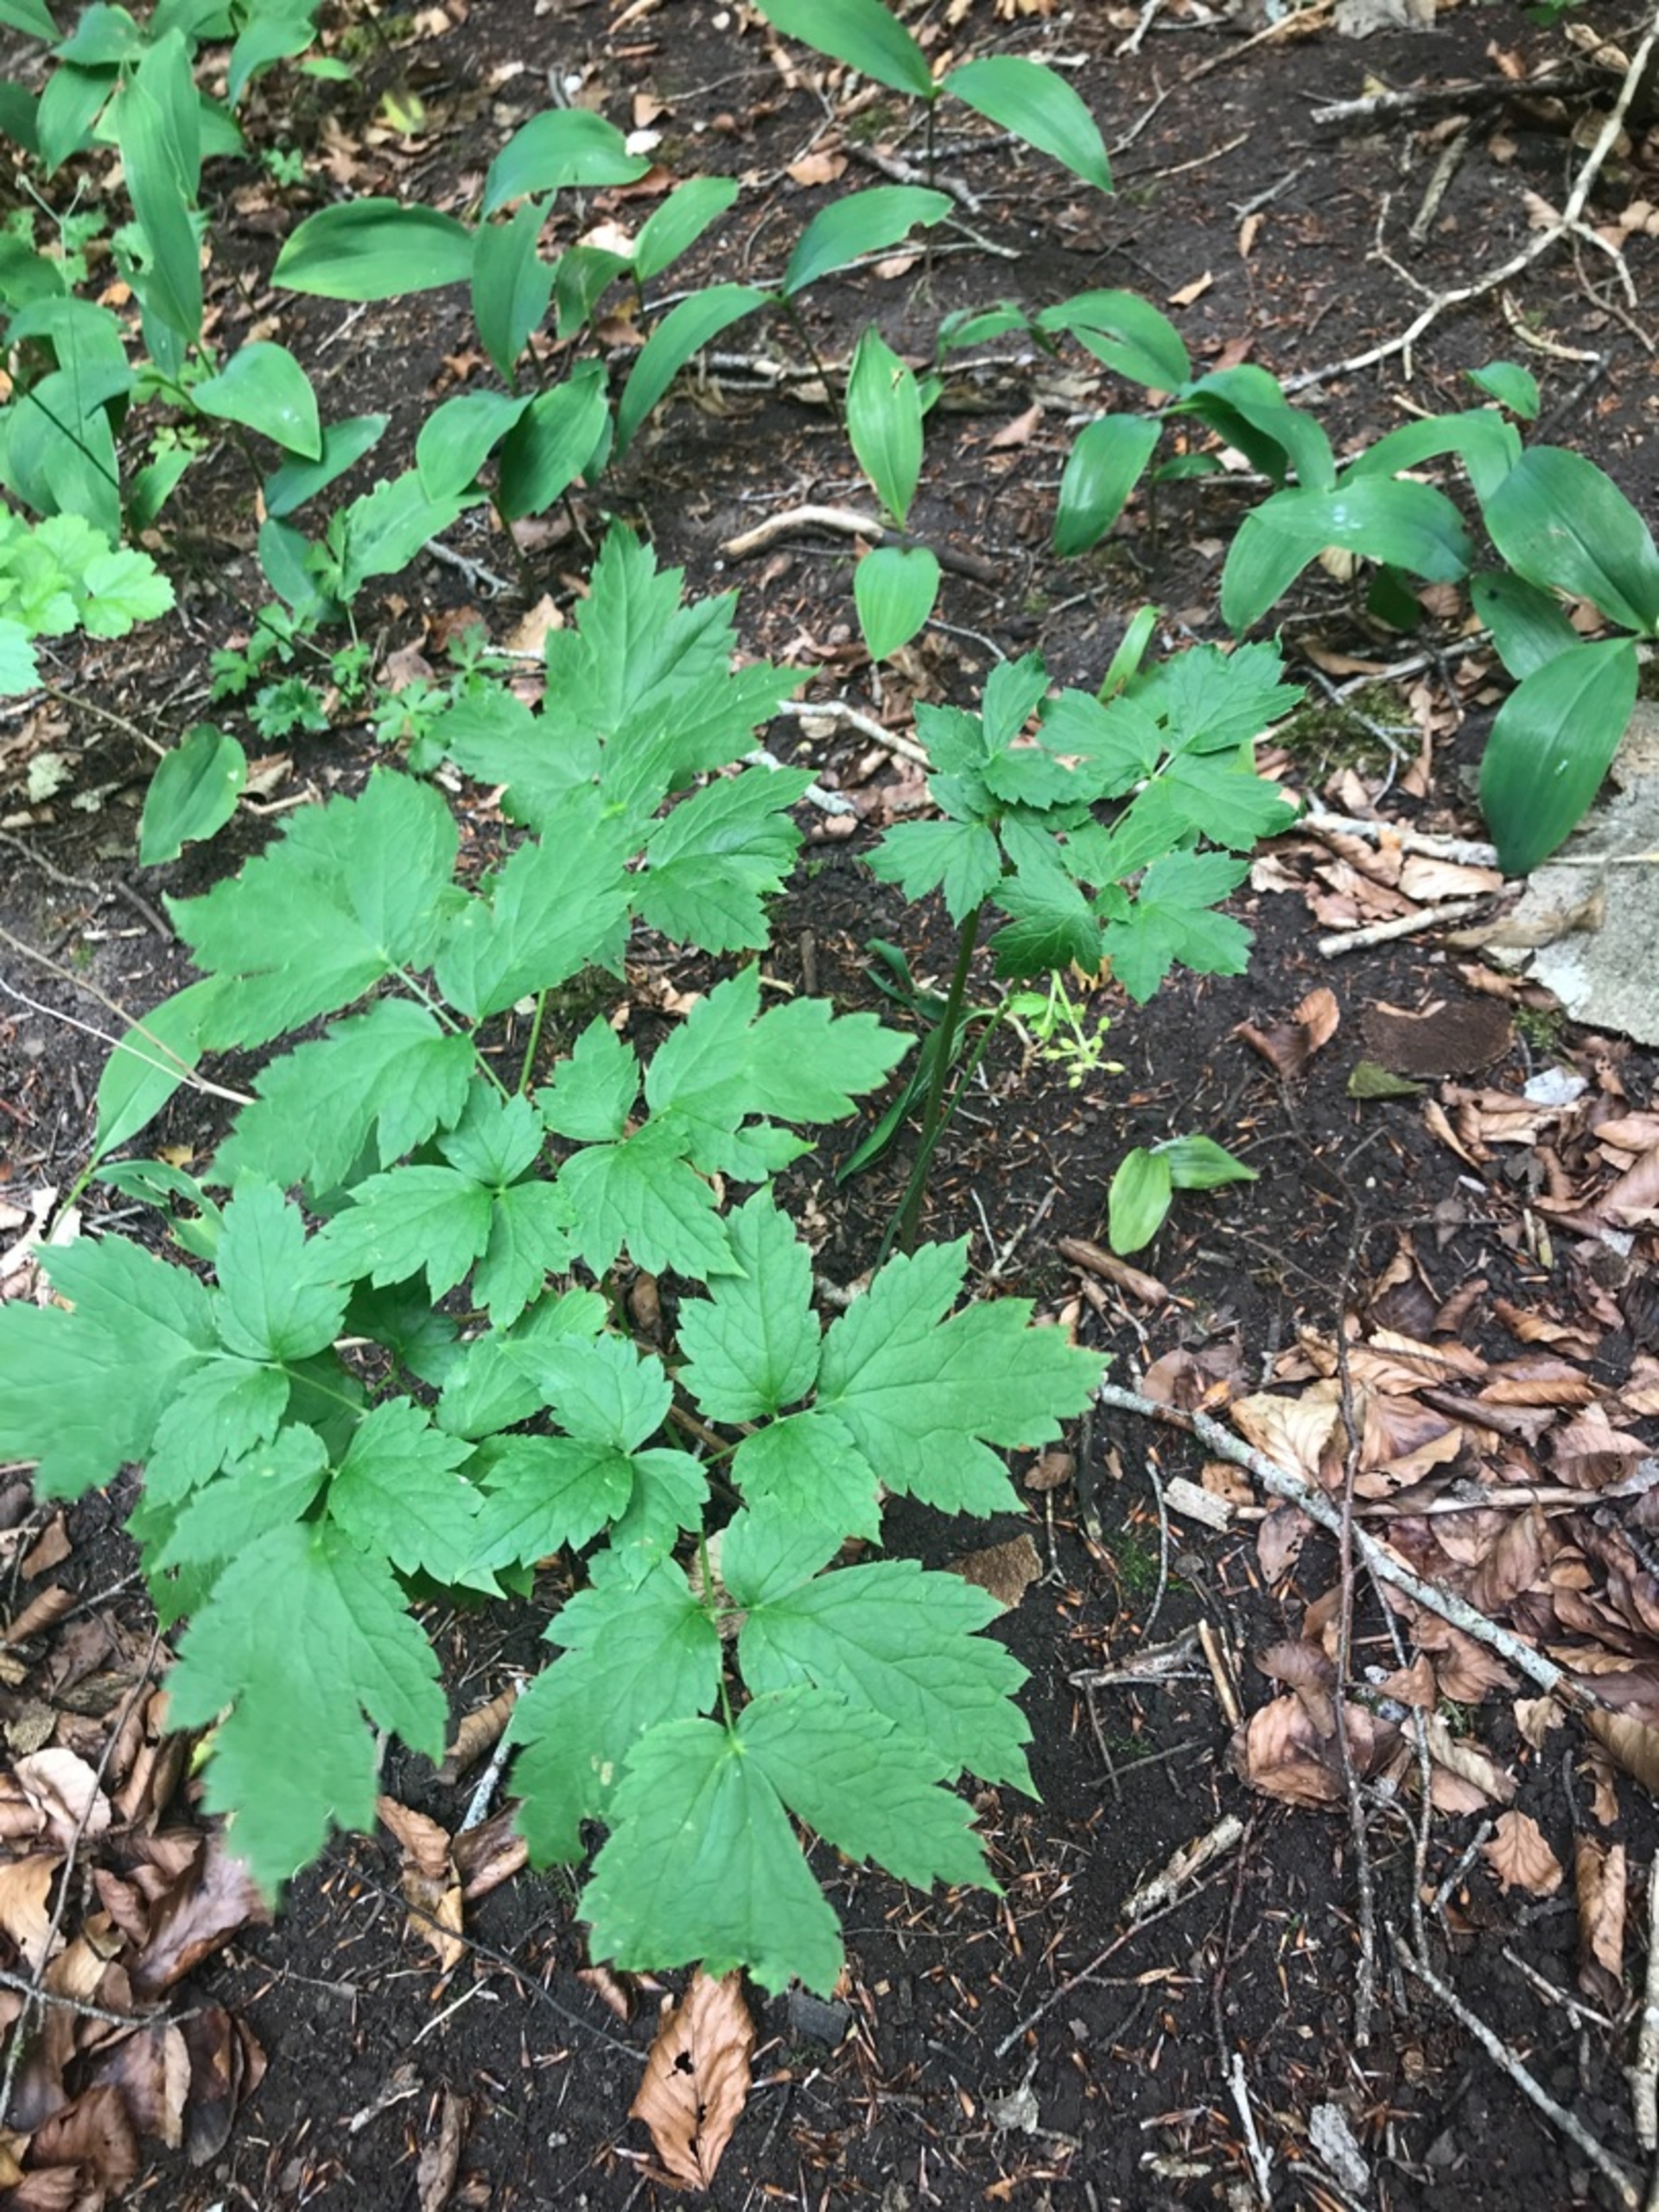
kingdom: Plantae
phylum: Tracheophyta
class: Magnoliopsida
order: Ranunculales
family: Ranunculaceae
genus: Actaea
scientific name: Actaea spicata
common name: Druemunke
